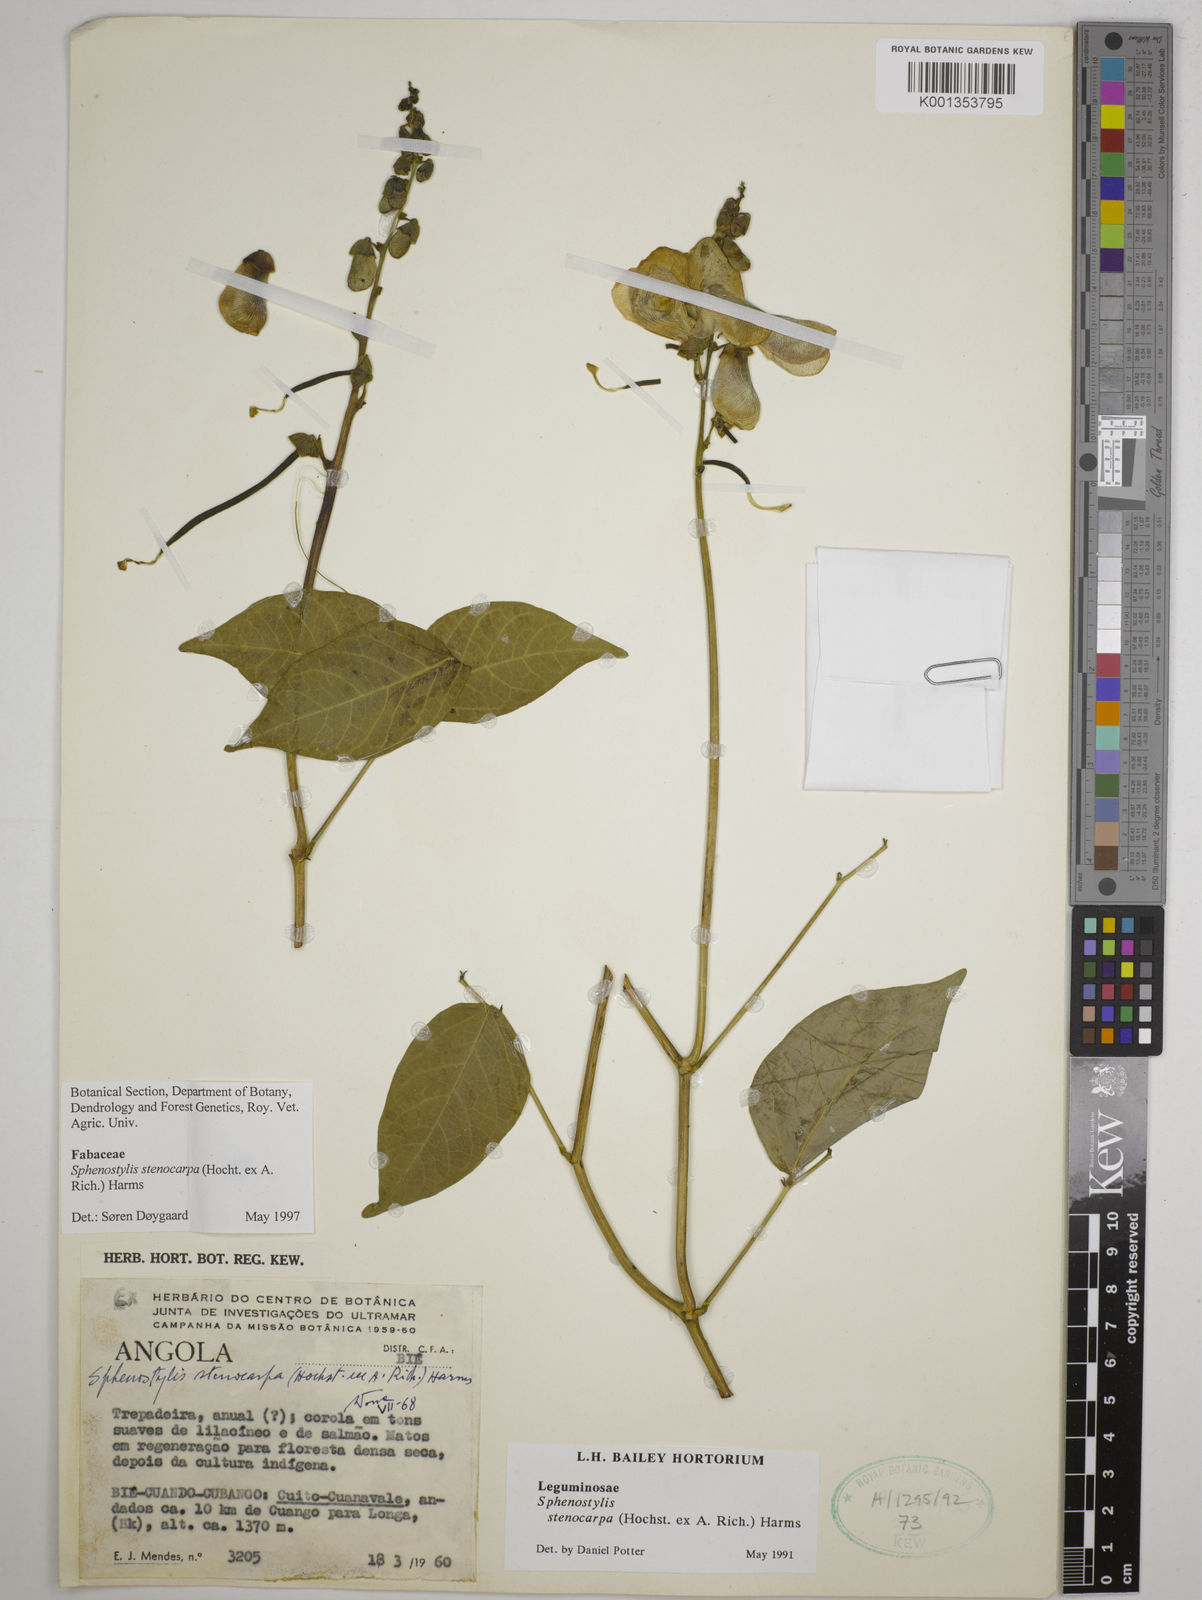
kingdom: Plantae
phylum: Tracheophyta
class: Magnoliopsida
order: Fabales
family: Fabaceae
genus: Sphenostylis
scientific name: Sphenostylis stenocarpa
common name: Yam-pea
